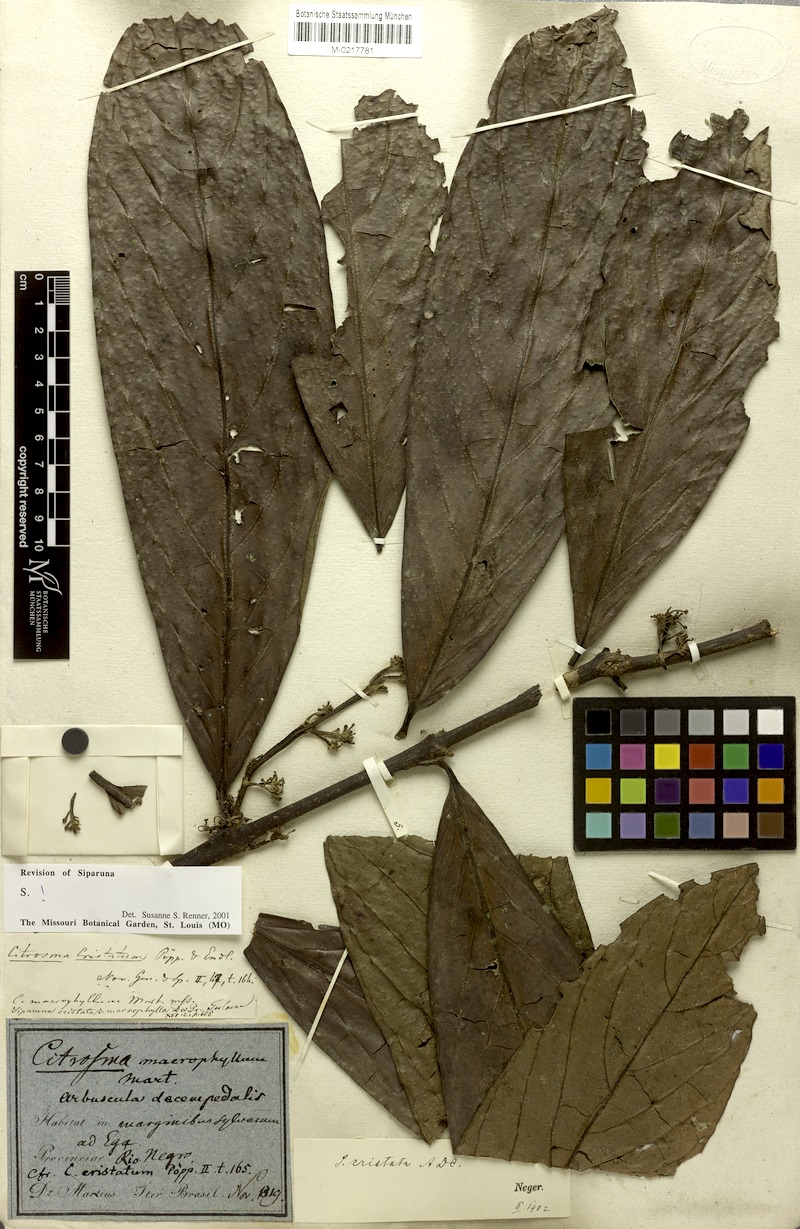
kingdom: Plantae
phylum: Tracheophyta
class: Magnoliopsida
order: Laurales
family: Siparunaceae
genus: Siparuna
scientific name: Siparuna cristata
